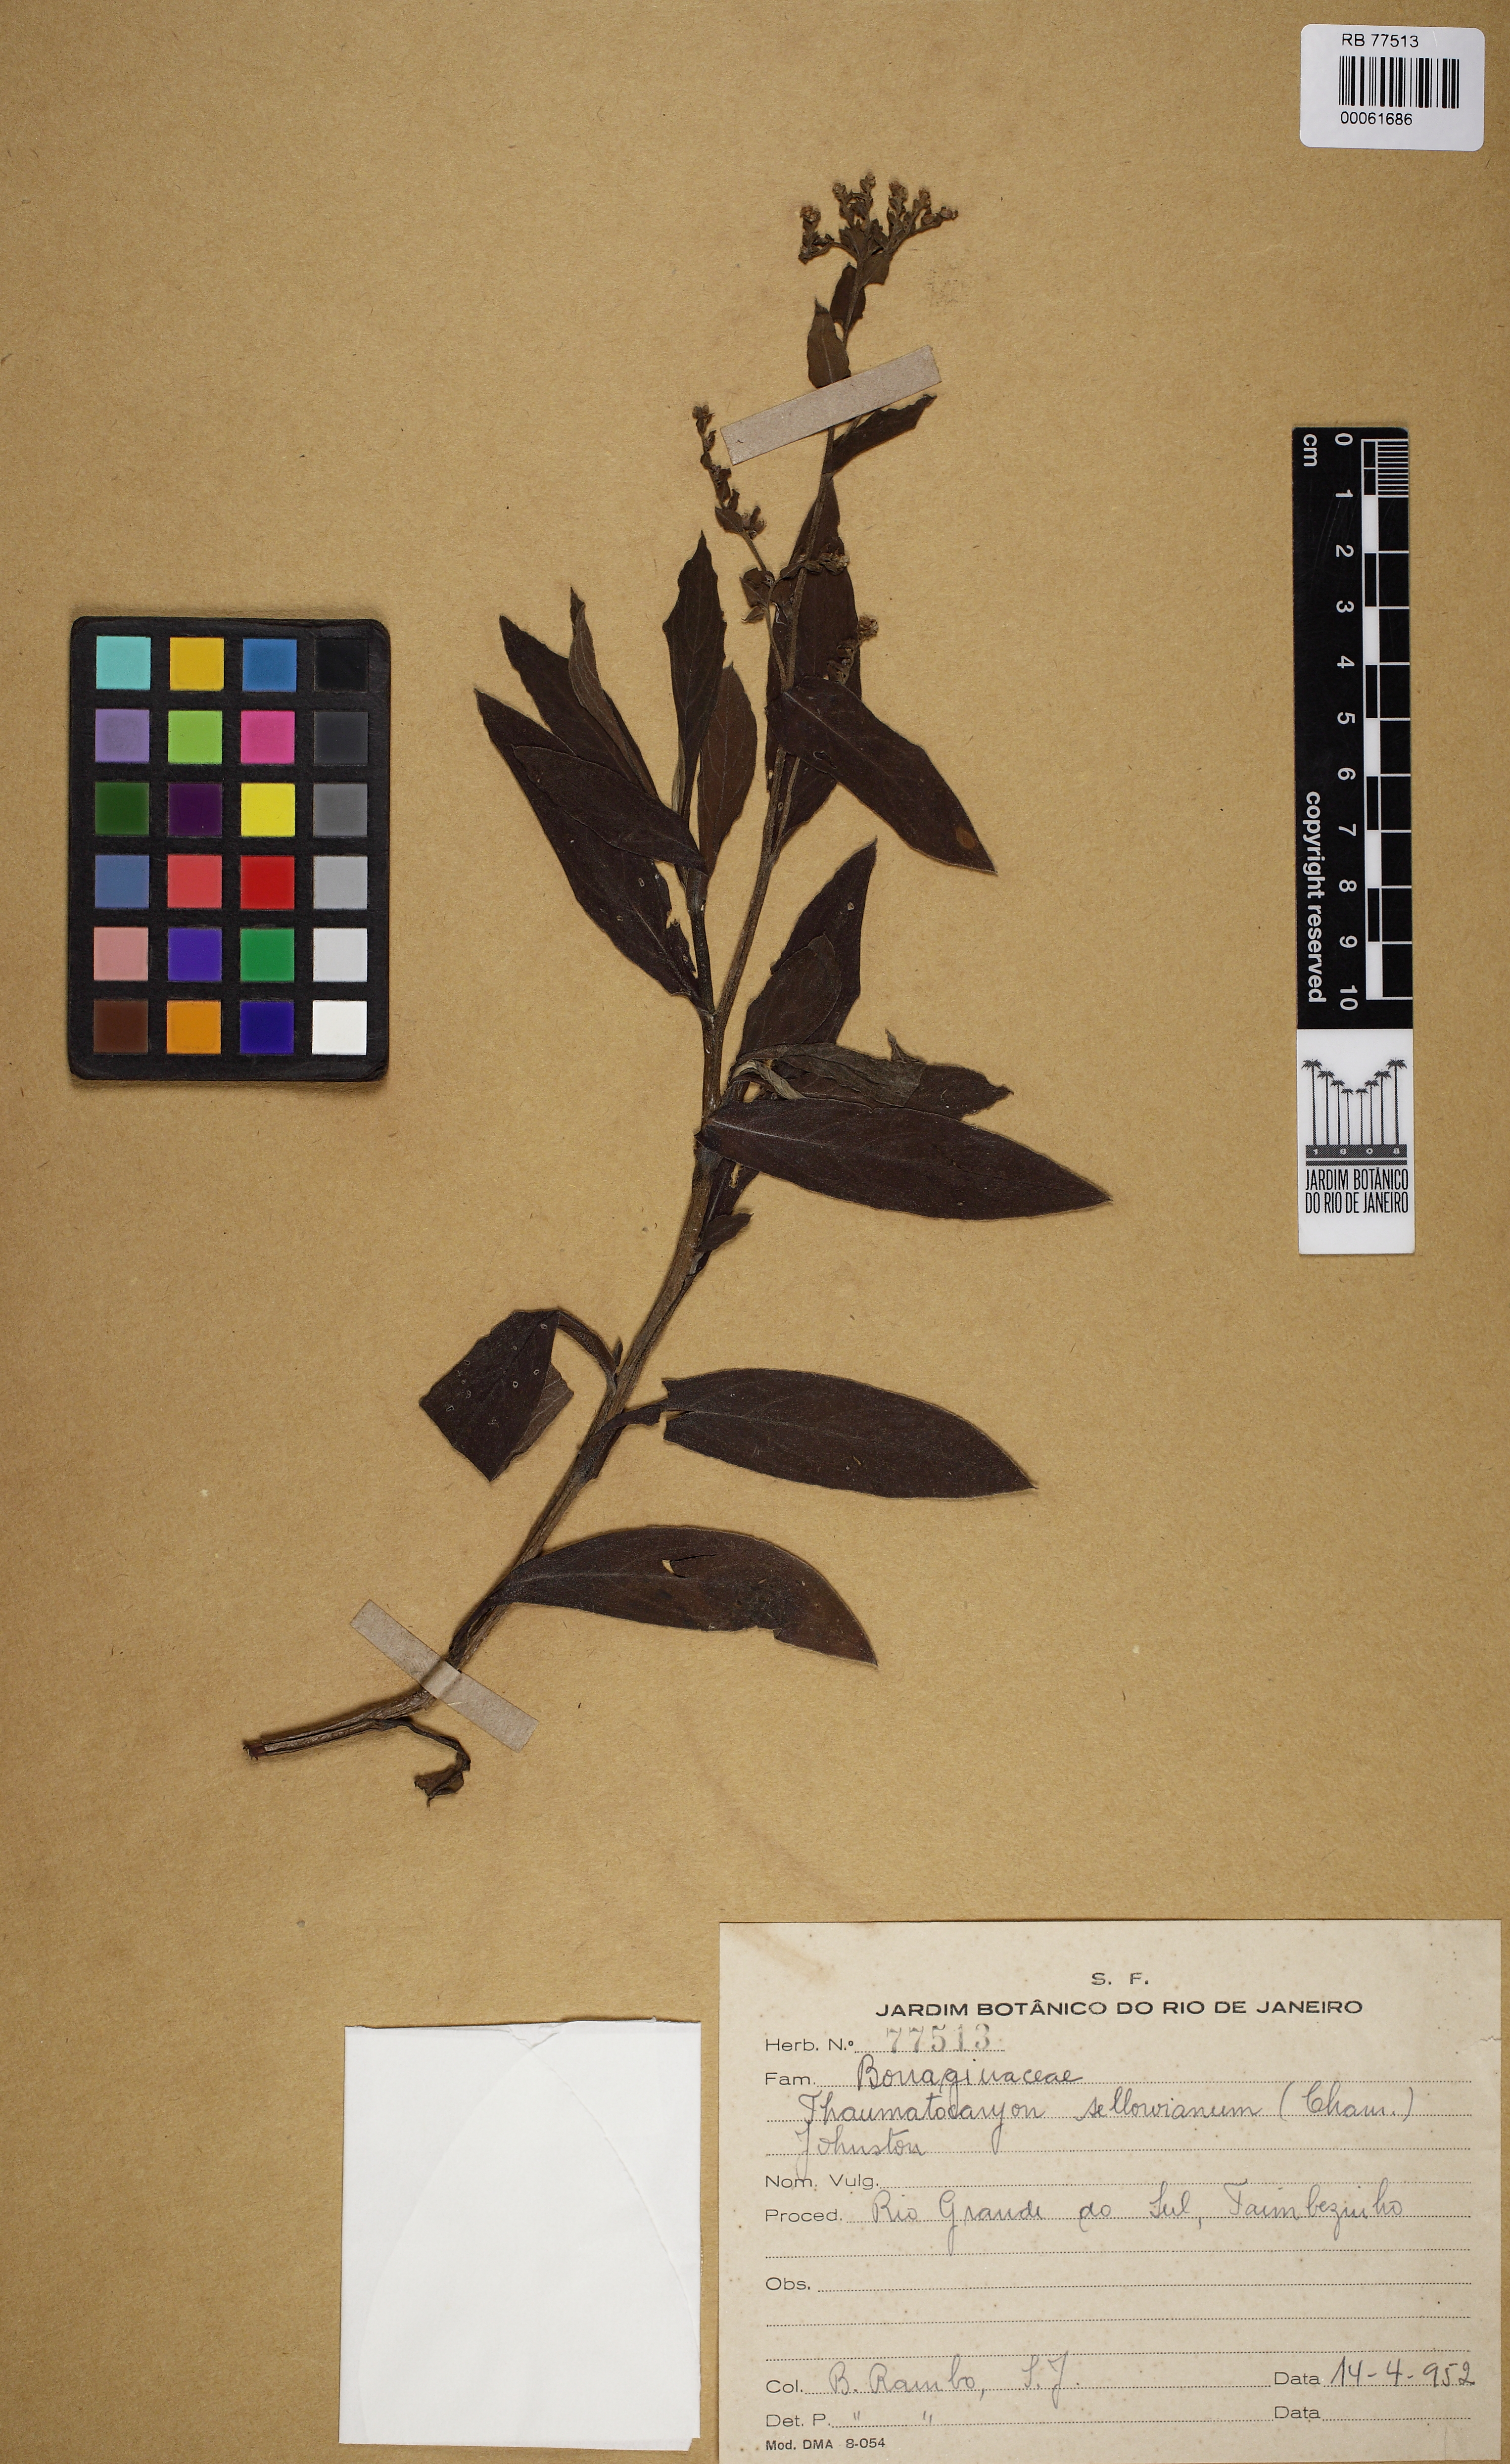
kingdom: Plantae
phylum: Tracheophyta
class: Magnoliopsida
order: Boraginales
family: Boraginaceae
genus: Thaumatocaryon
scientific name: Thaumatocaryon
